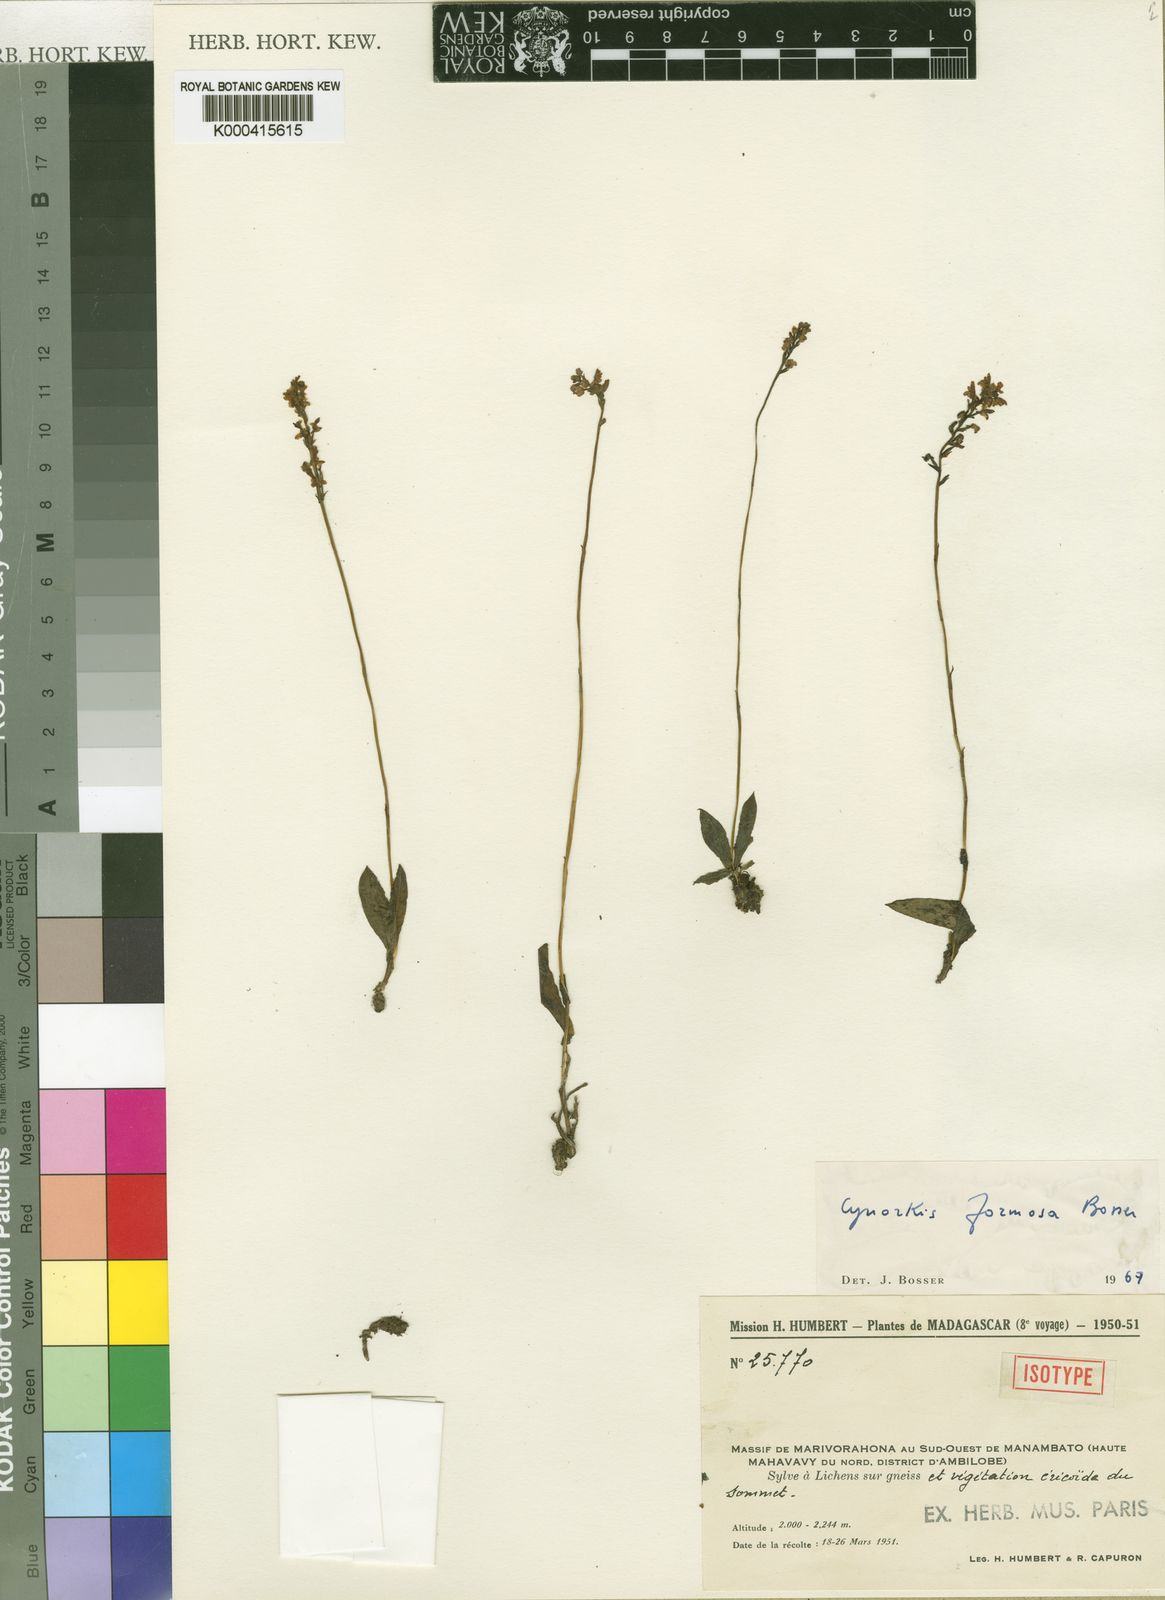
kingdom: Plantae
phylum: Tracheophyta
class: Liliopsida
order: Asparagales
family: Orchidaceae
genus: Cynorkis
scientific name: Cynorkis formosa
